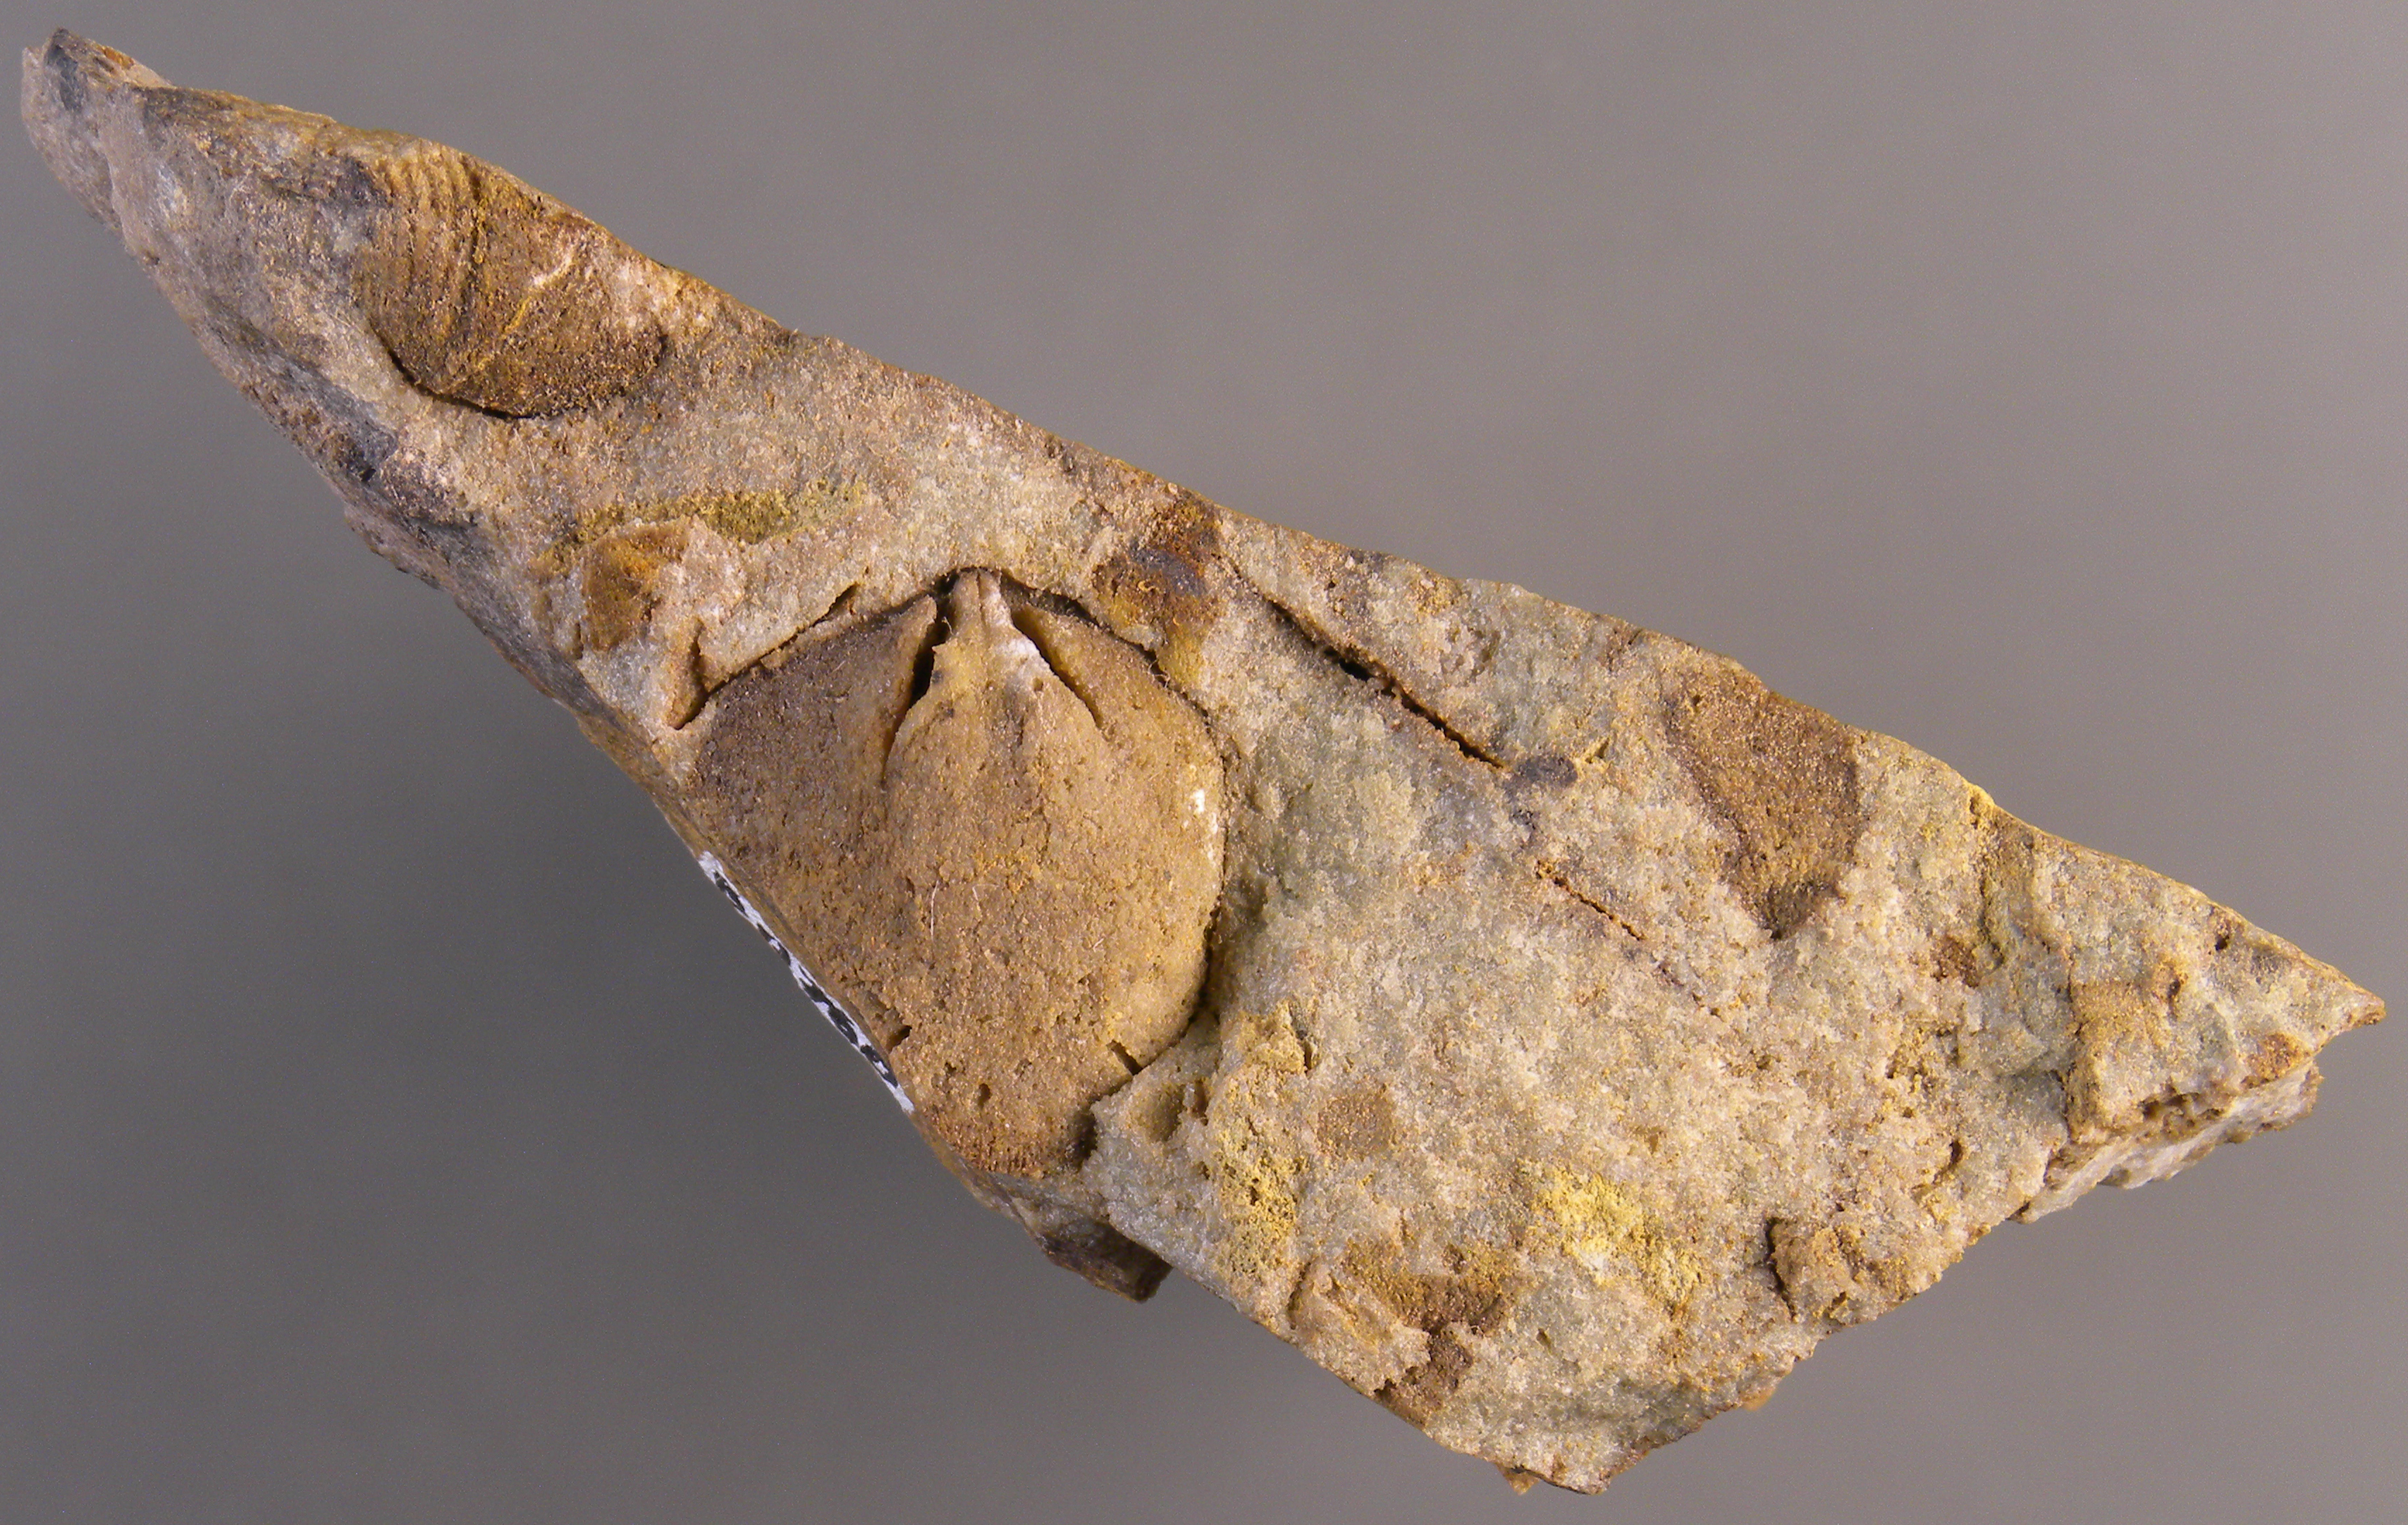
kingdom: Animalia
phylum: Brachiopoda
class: Rhynchonellata
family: Schizophoriidae
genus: Schizophoria
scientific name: Schizophoria
